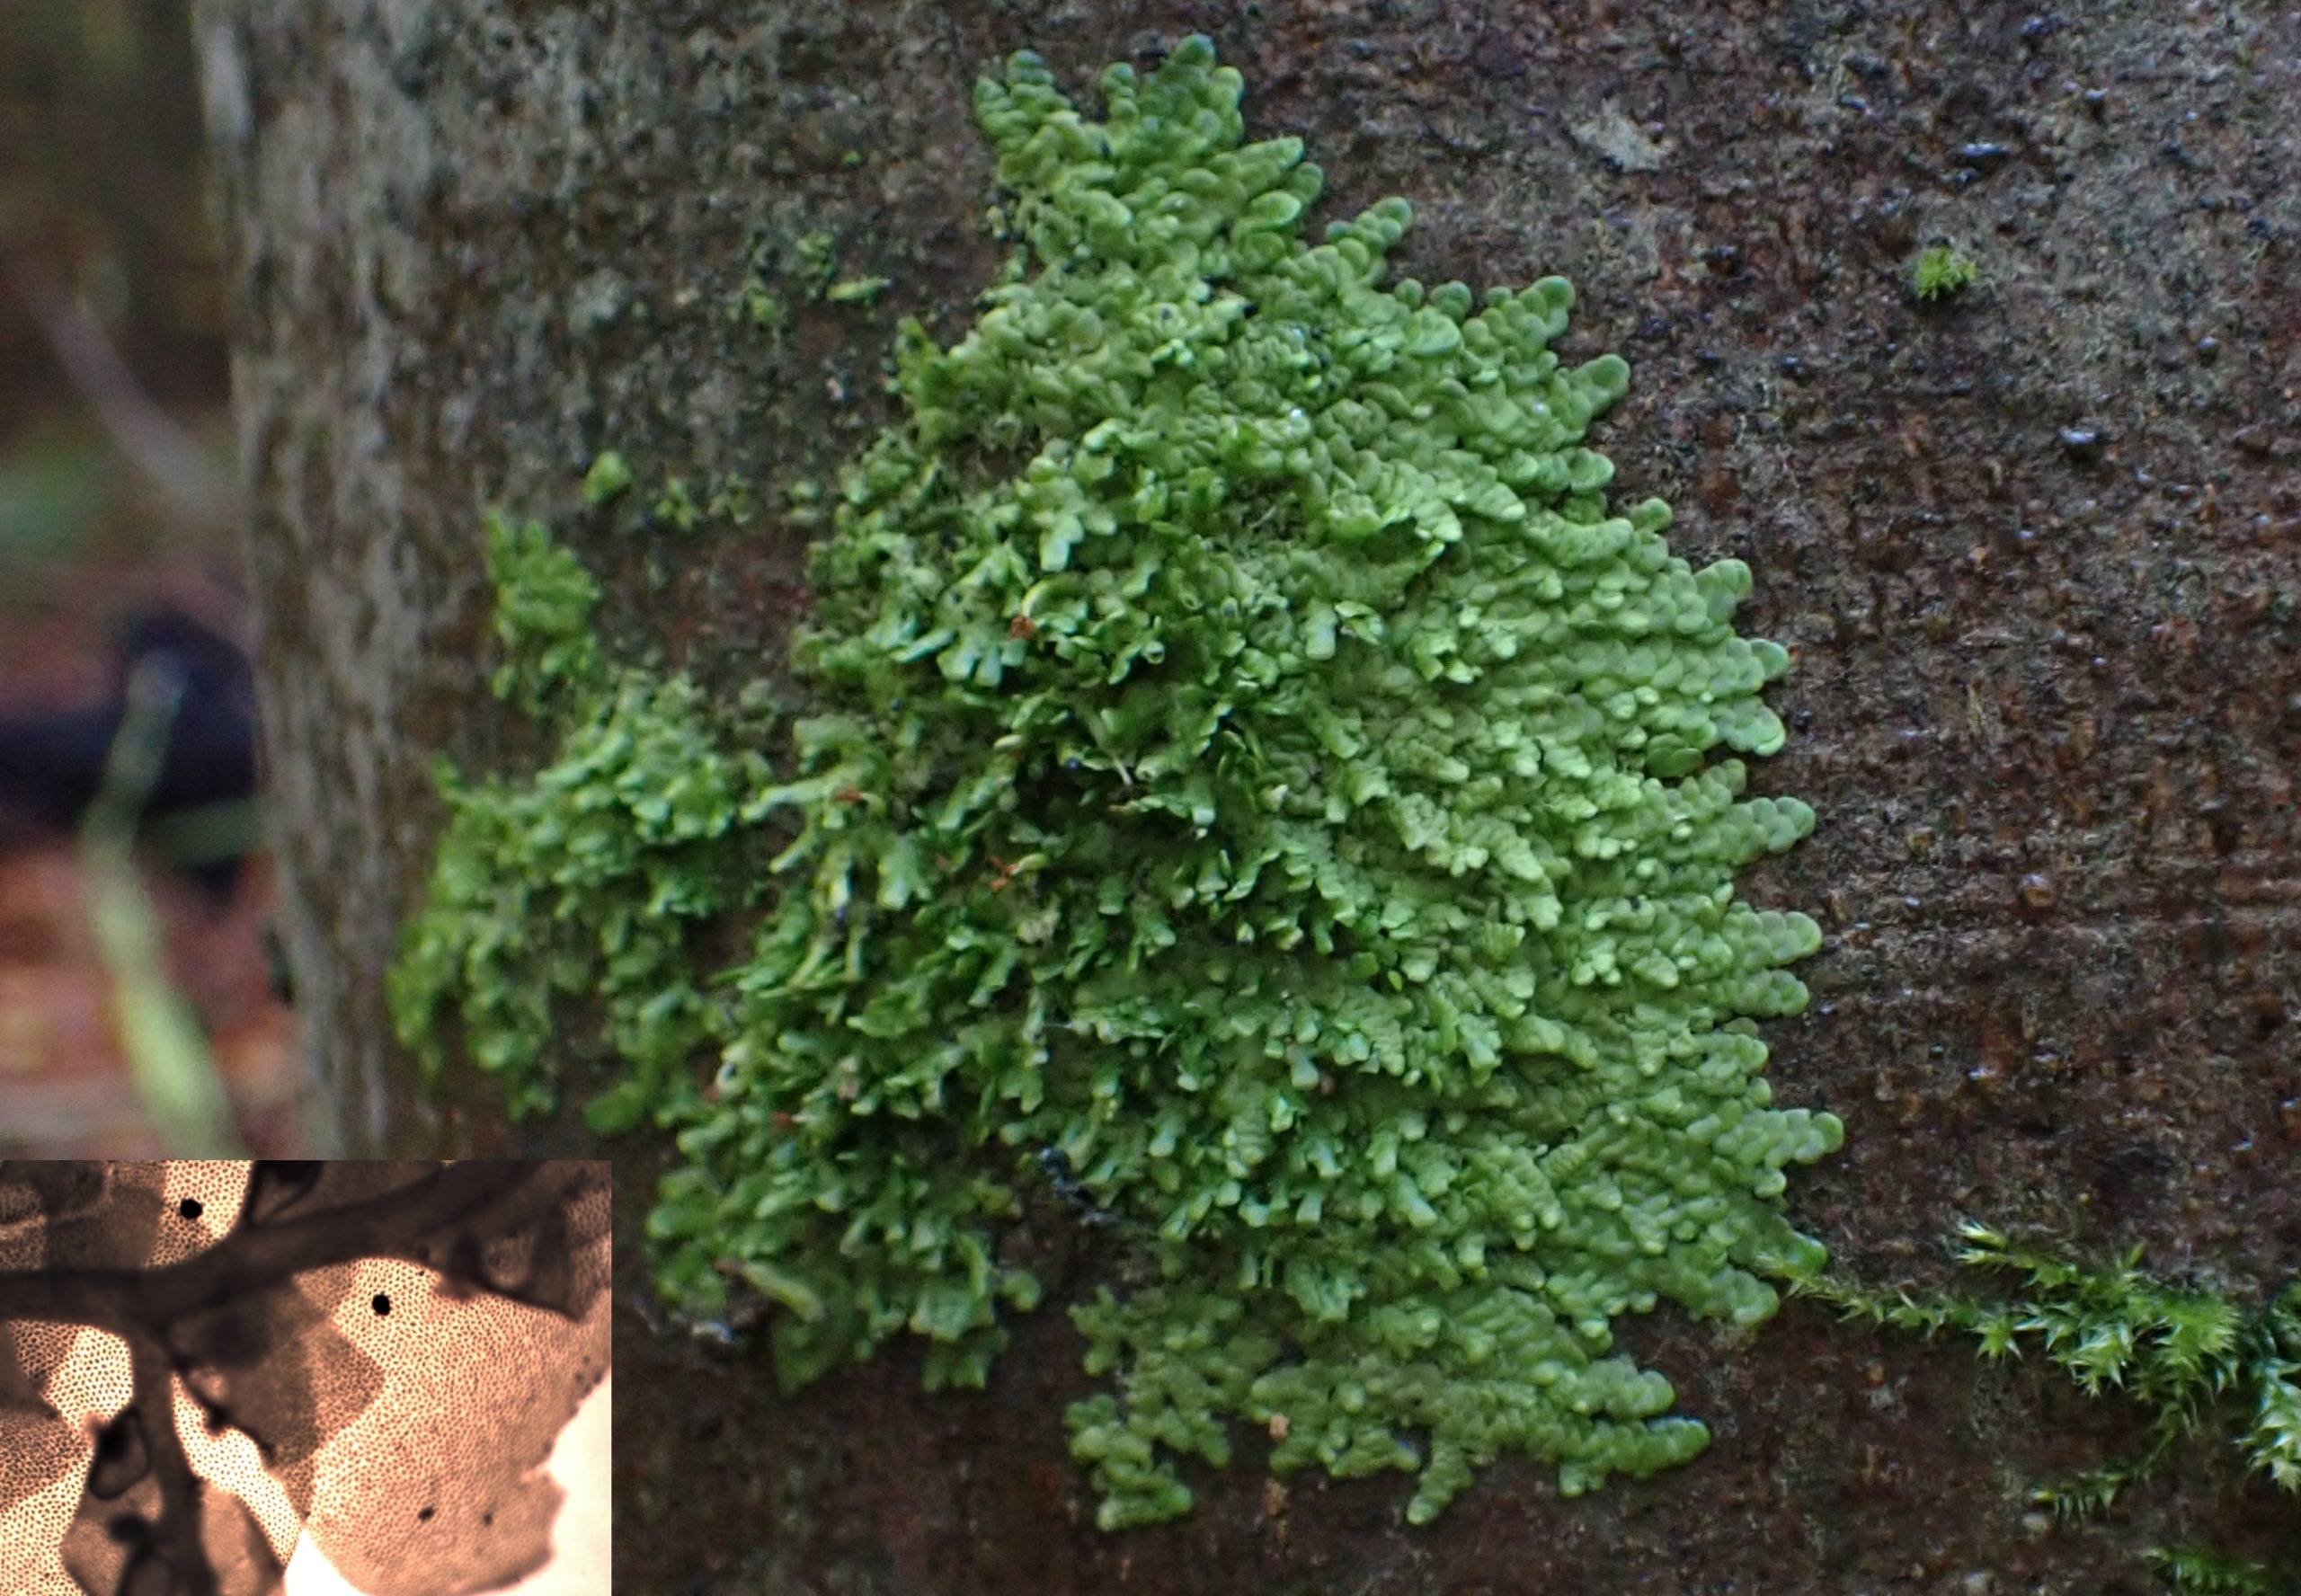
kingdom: Plantae
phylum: Marchantiophyta
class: Jungermanniopsida
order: Porellales
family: Radulaceae
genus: Radula
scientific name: Radula complanata
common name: Almindelig spartelmos
